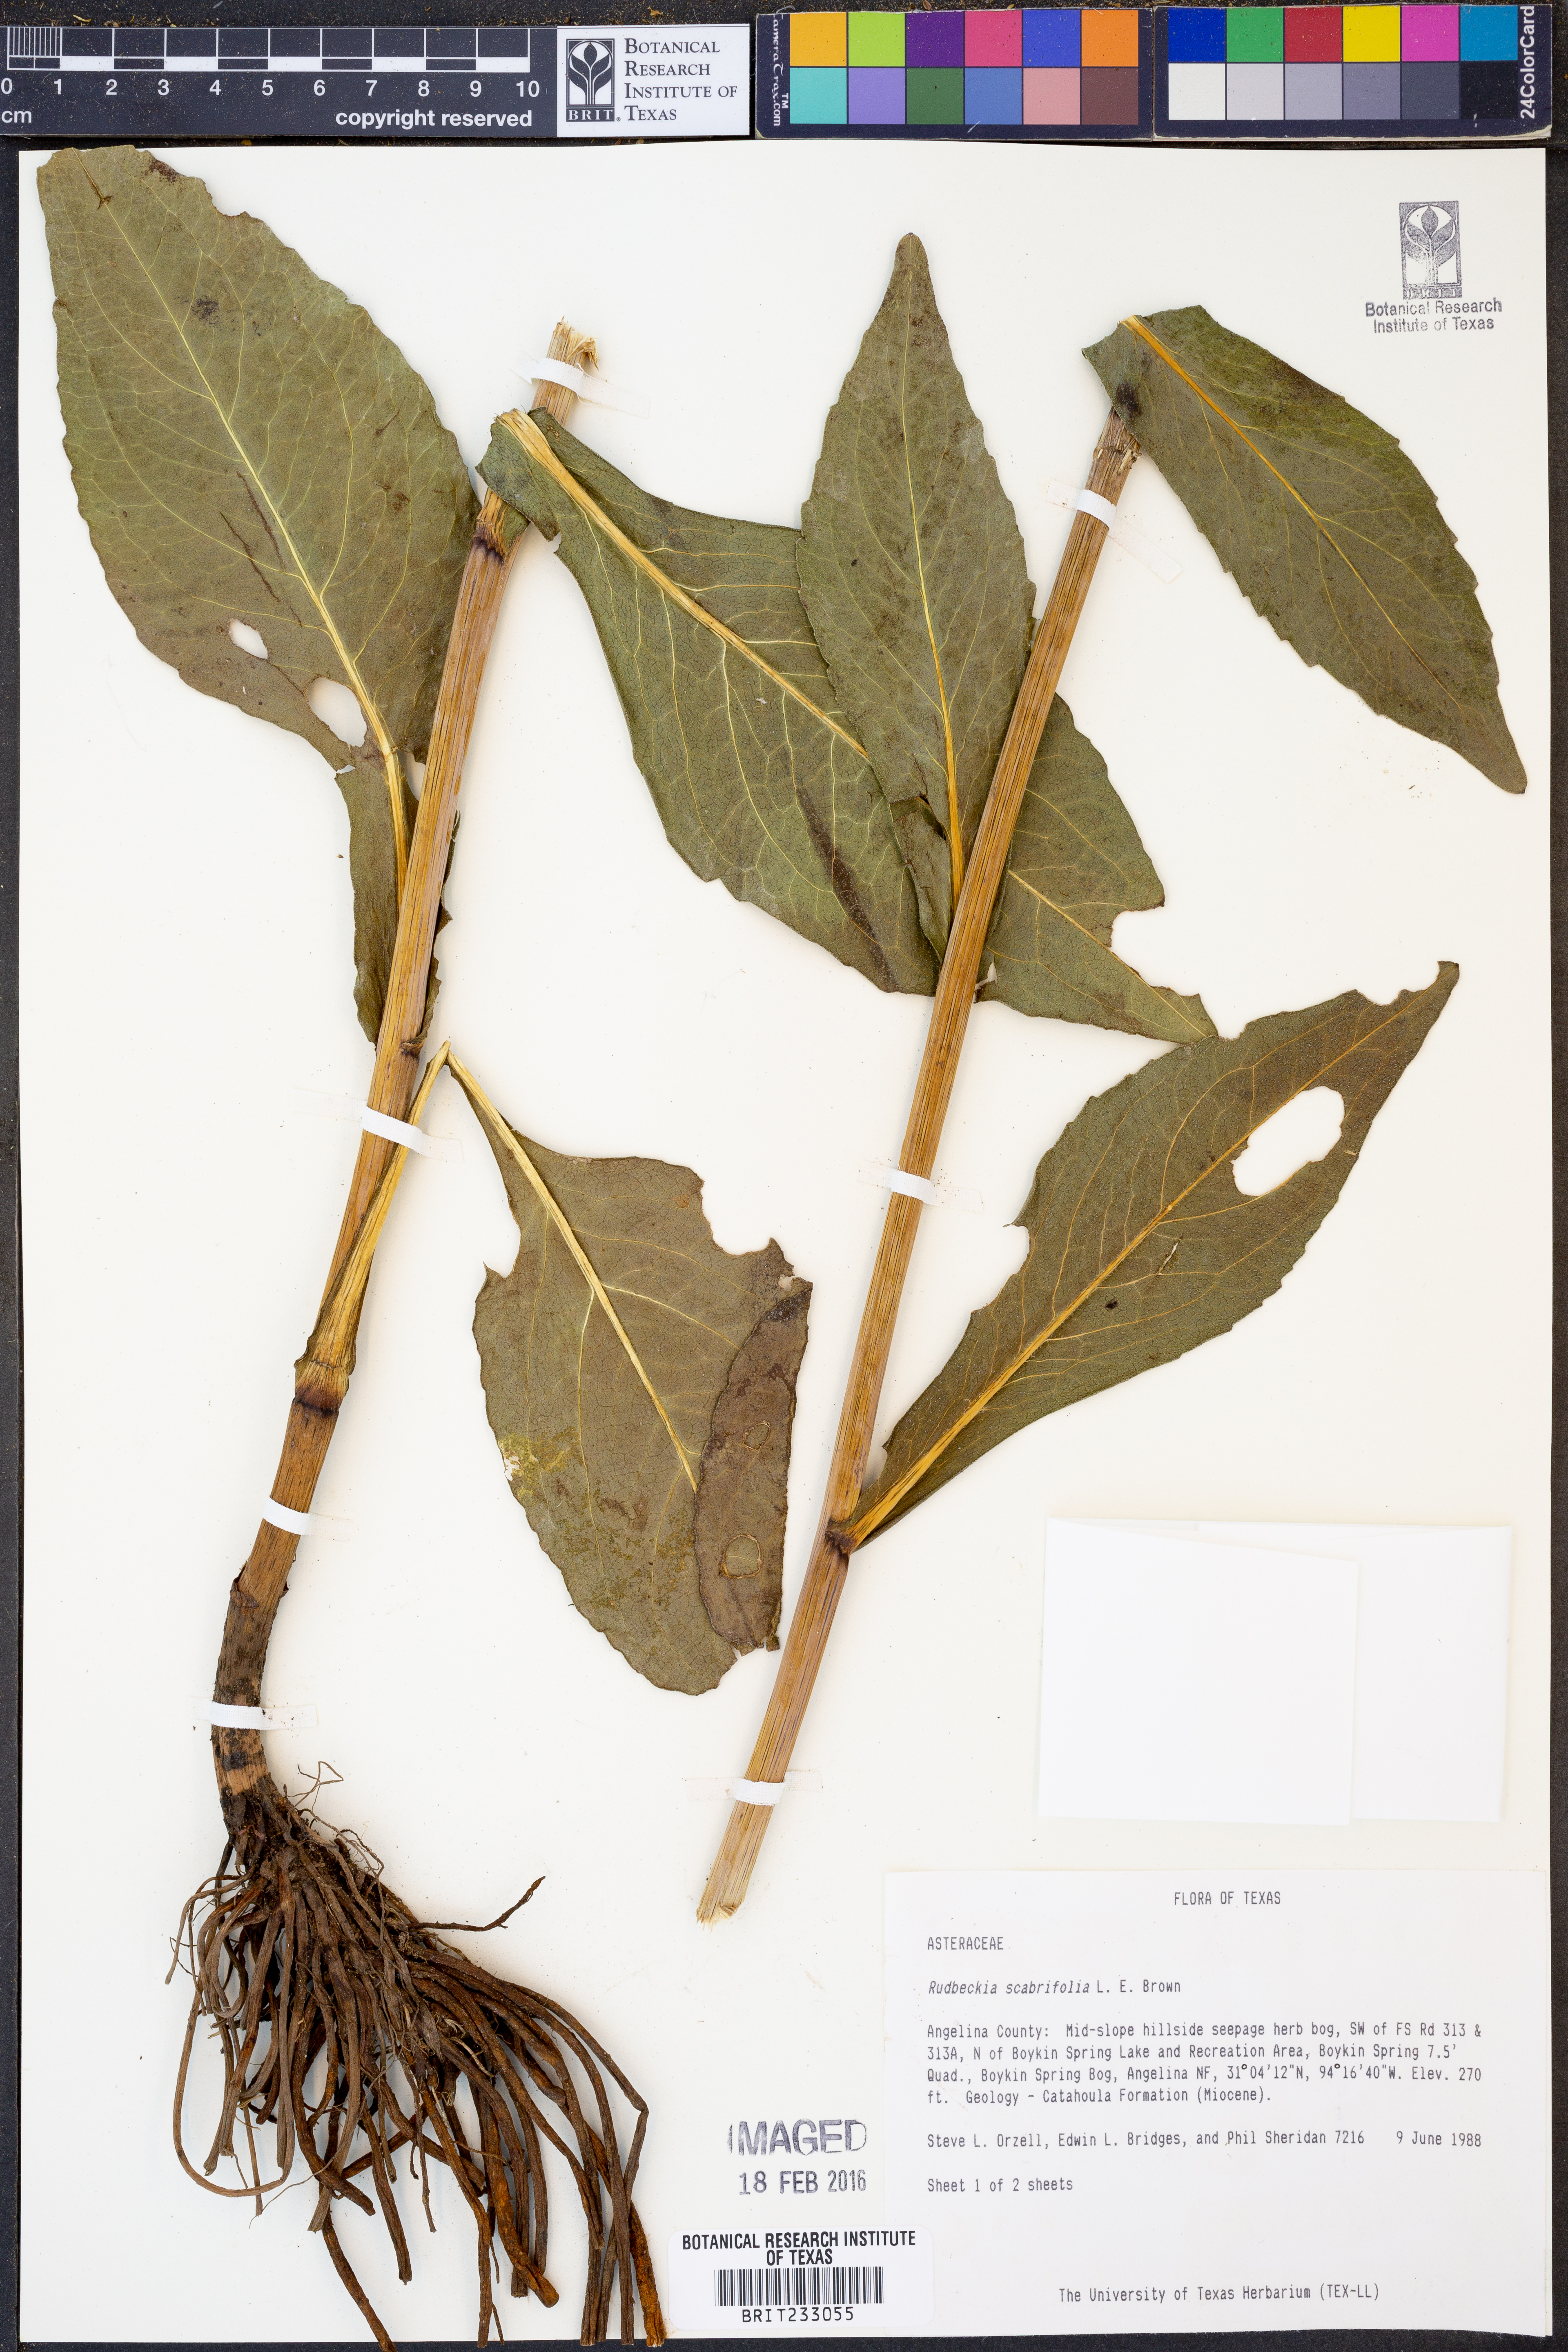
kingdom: Plantae
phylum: Tracheophyta
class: Magnoliopsida
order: Asterales
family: Asteraceae
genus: Rudbeckia
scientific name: Rudbeckia scabrifolia
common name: Rough-leaf coneflower
